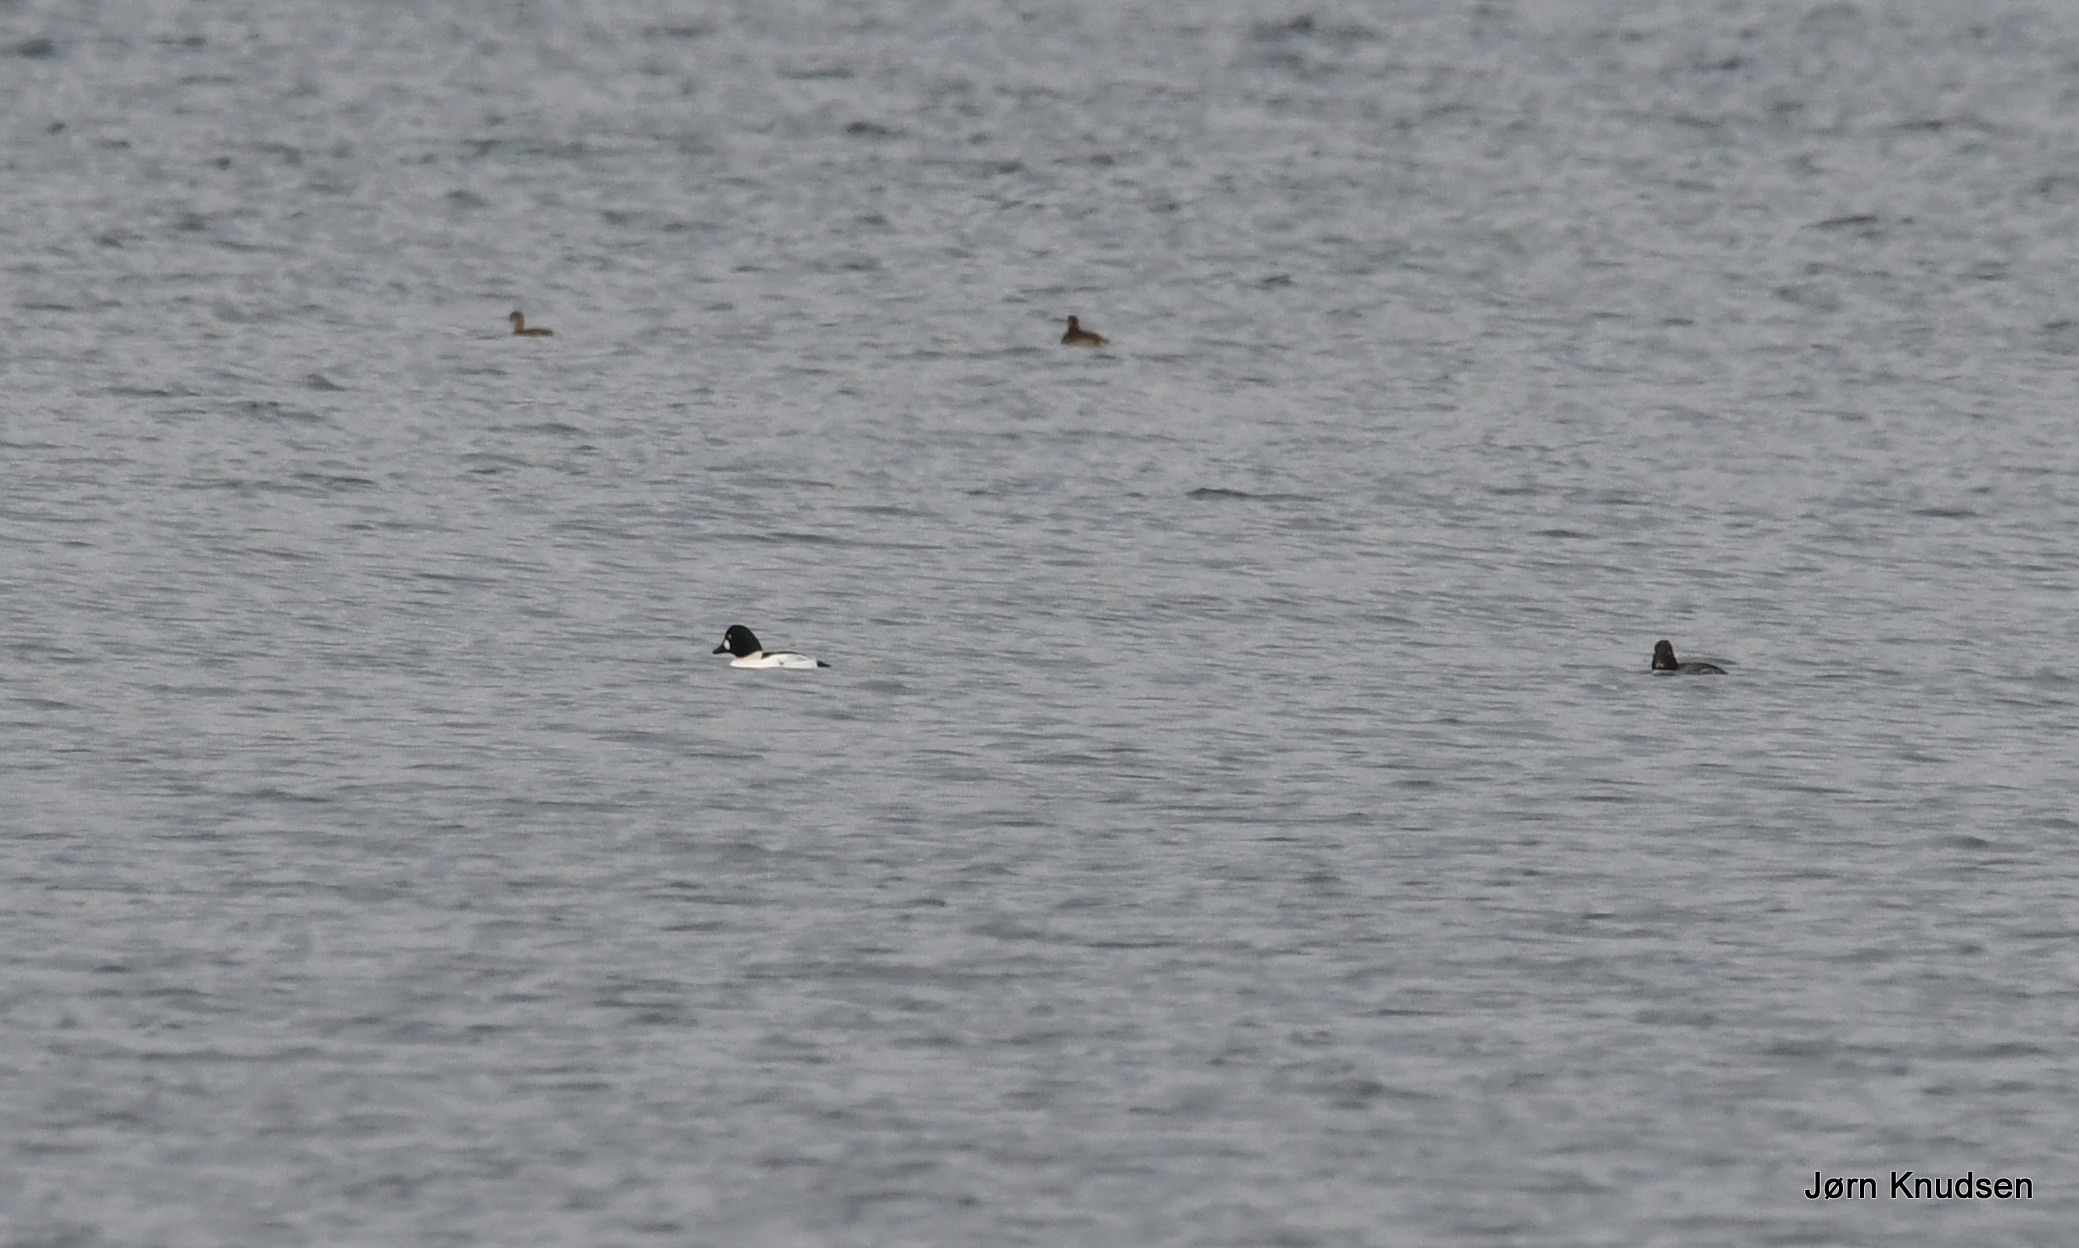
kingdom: Animalia
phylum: Chordata
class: Aves
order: Anseriformes
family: Anatidae
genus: Bucephala
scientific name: Bucephala clangula
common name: Hvinand
